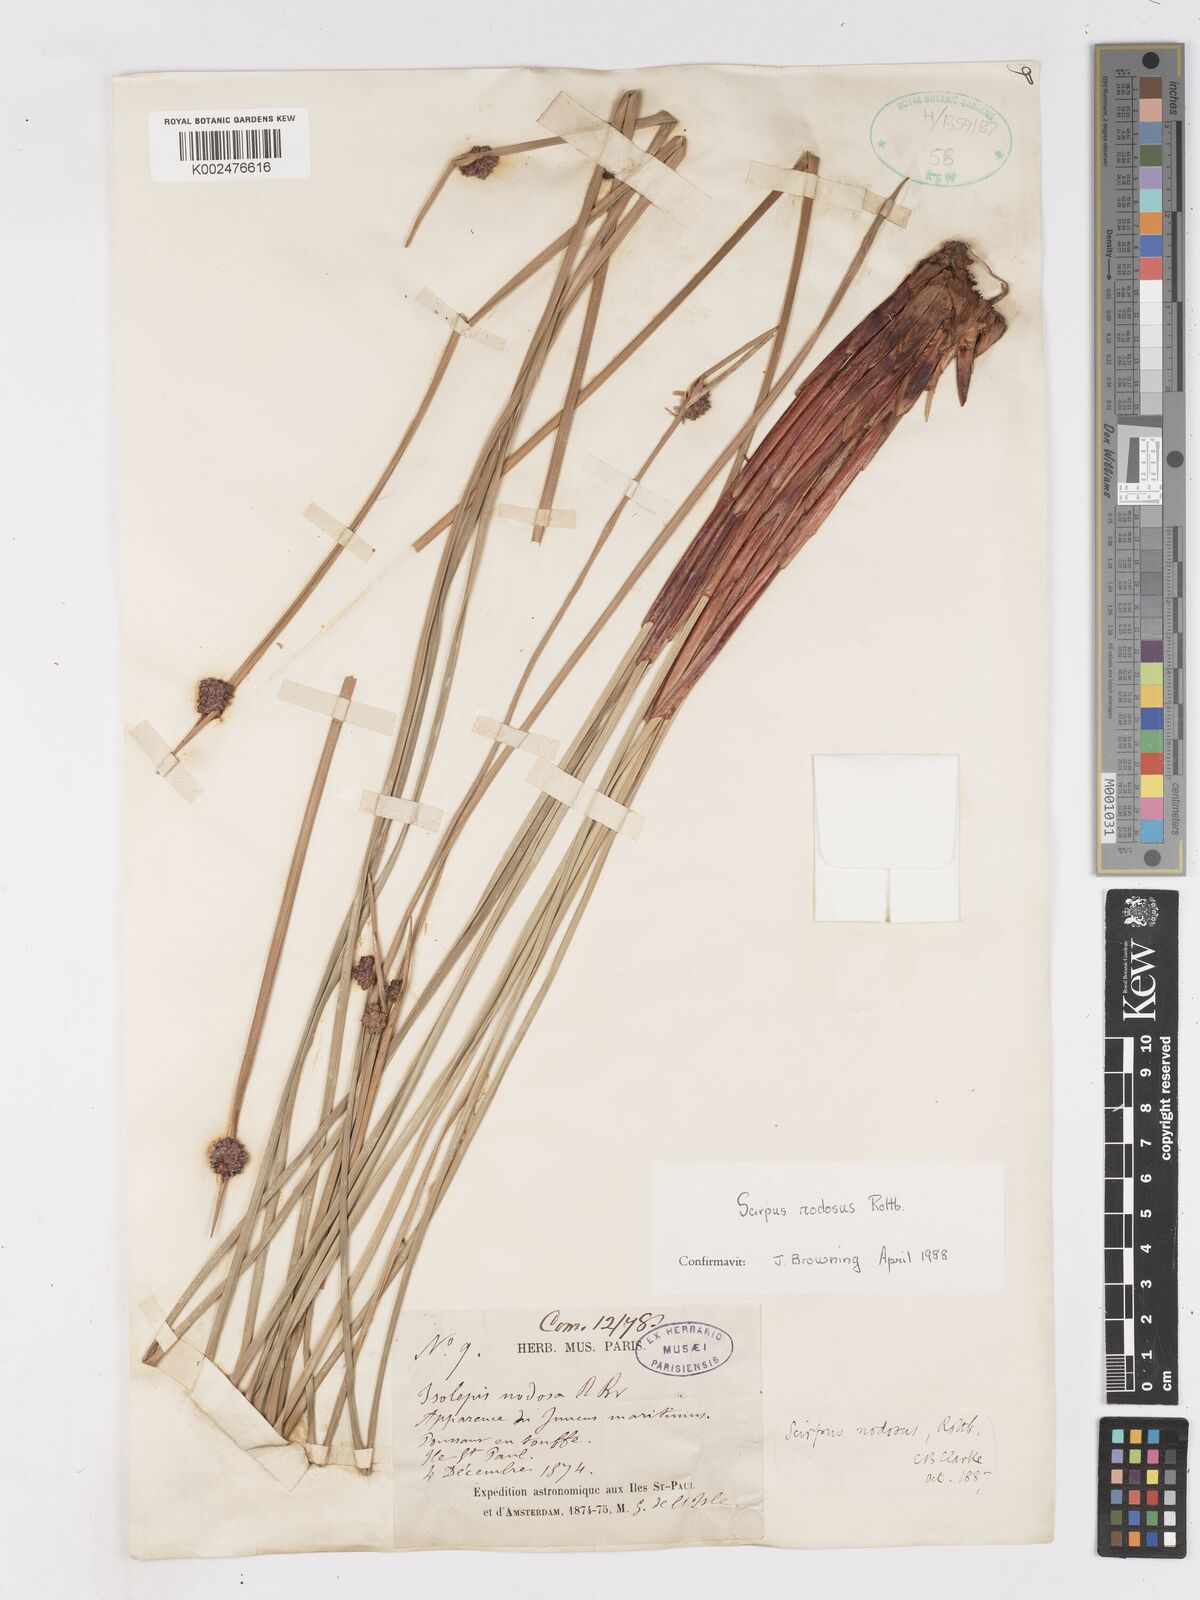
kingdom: Plantae
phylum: Tracheophyta
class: Liliopsida
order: Poales
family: Cyperaceae
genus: Ficinia
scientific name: Ficinia nodosa
